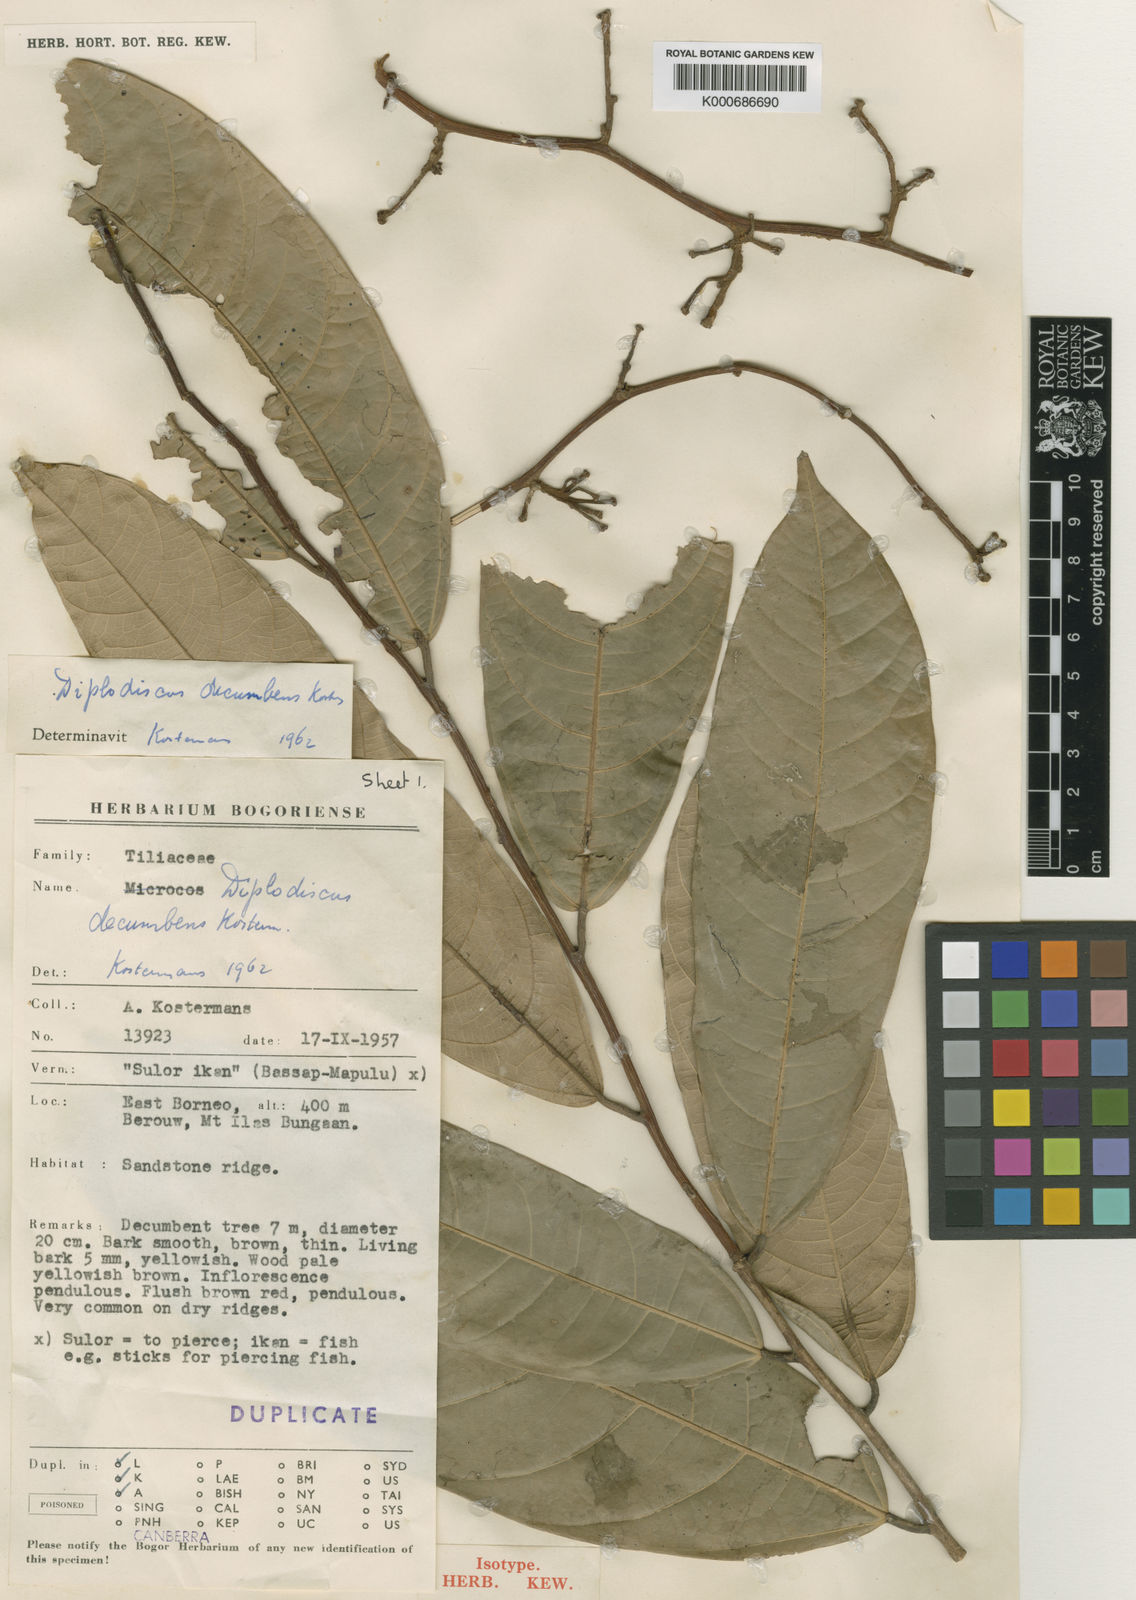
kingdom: Plantae
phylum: Tracheophyta
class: Magnoliopsida
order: Malvales
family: Malvaceae
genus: Diplodiscus
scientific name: Diplodiscus decumbens
